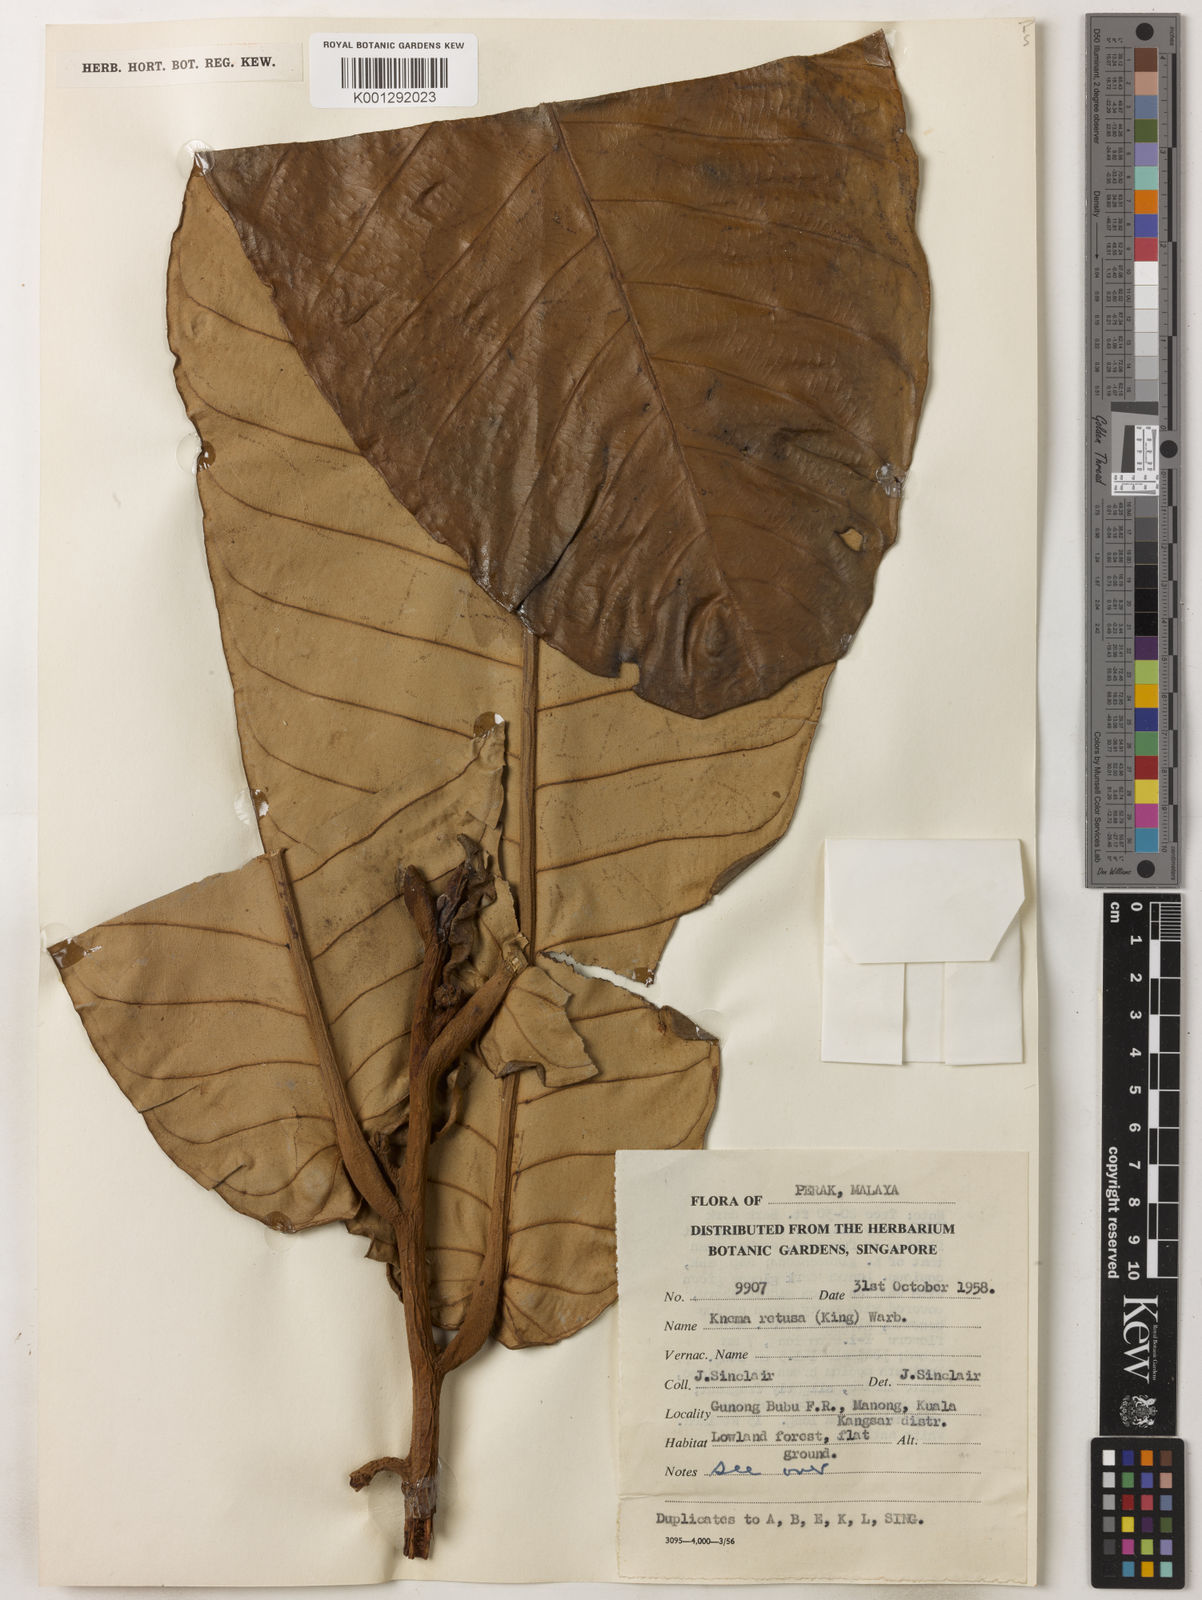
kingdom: Plantae
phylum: Tracheophyta
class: Magnoliopsida
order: Magnoliales
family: Myristicaceae
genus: Knema
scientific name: Knema retusa
